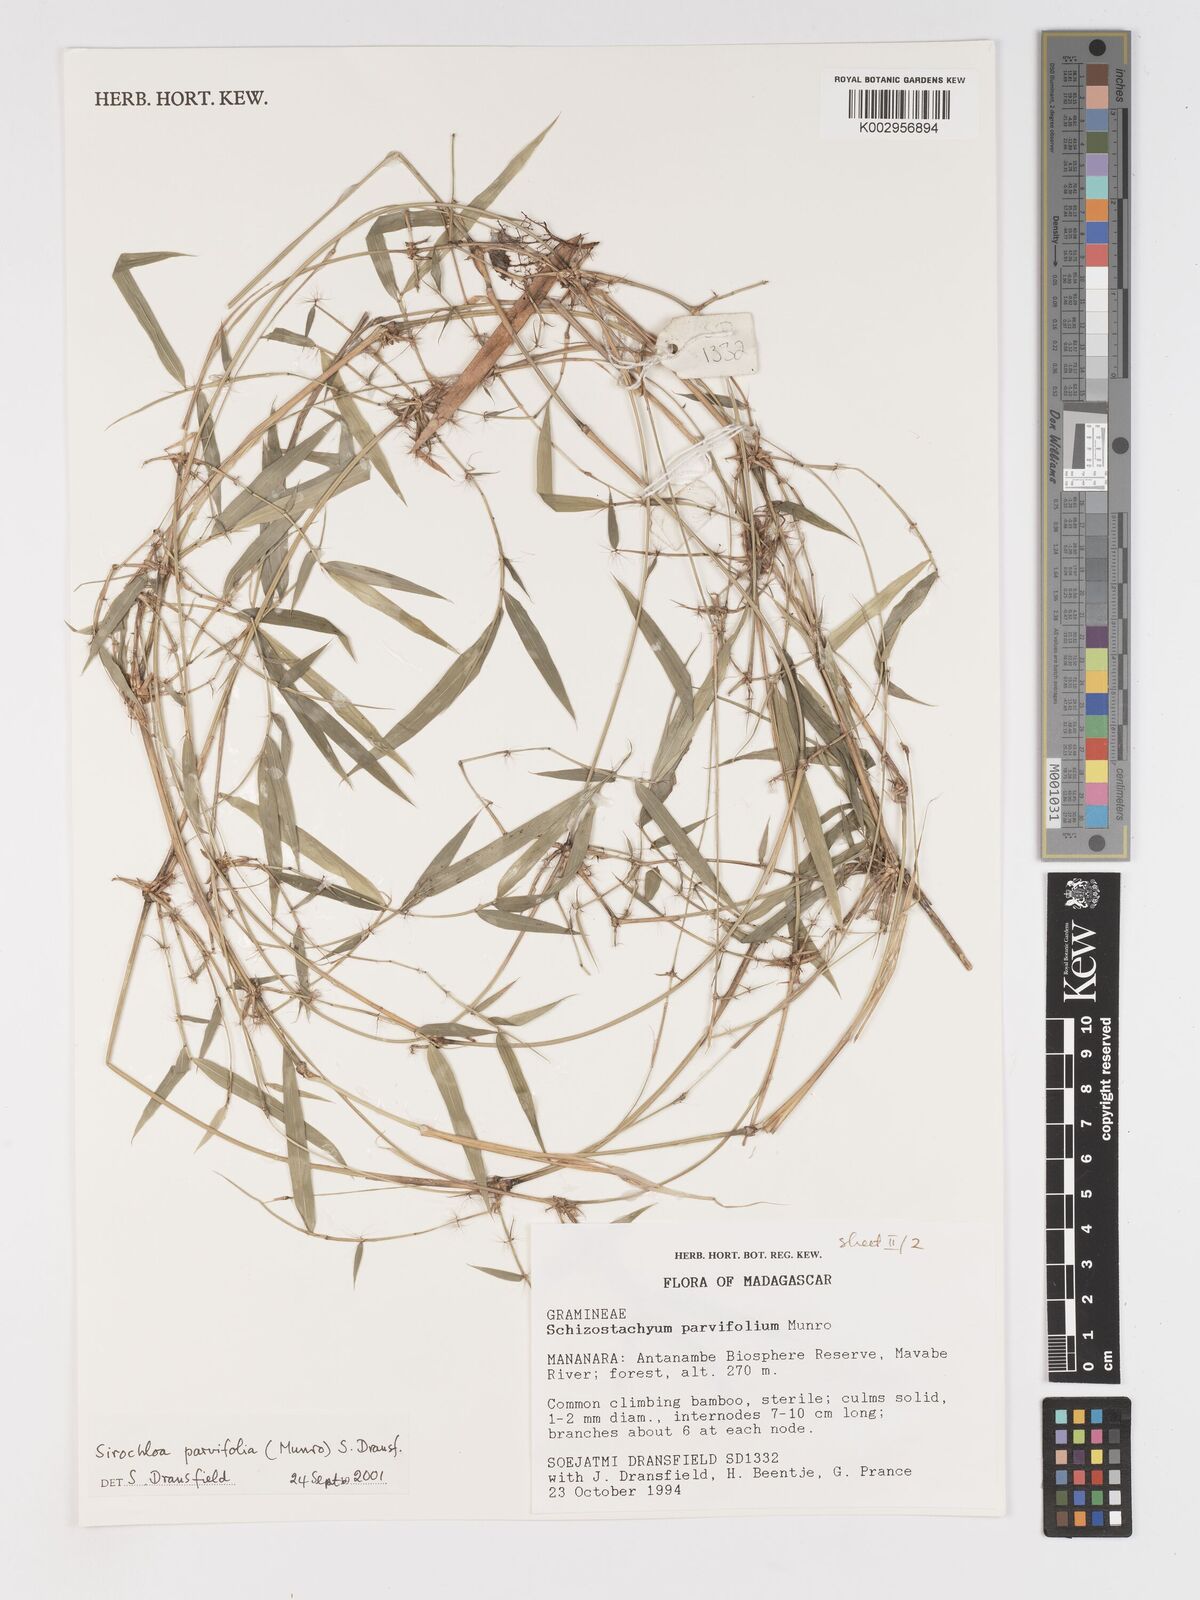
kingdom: Plantae
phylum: Tracheophyta
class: Liliopsida
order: Poales
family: Poaceae
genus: Sirochloa
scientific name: Sirochloa parvifolia
